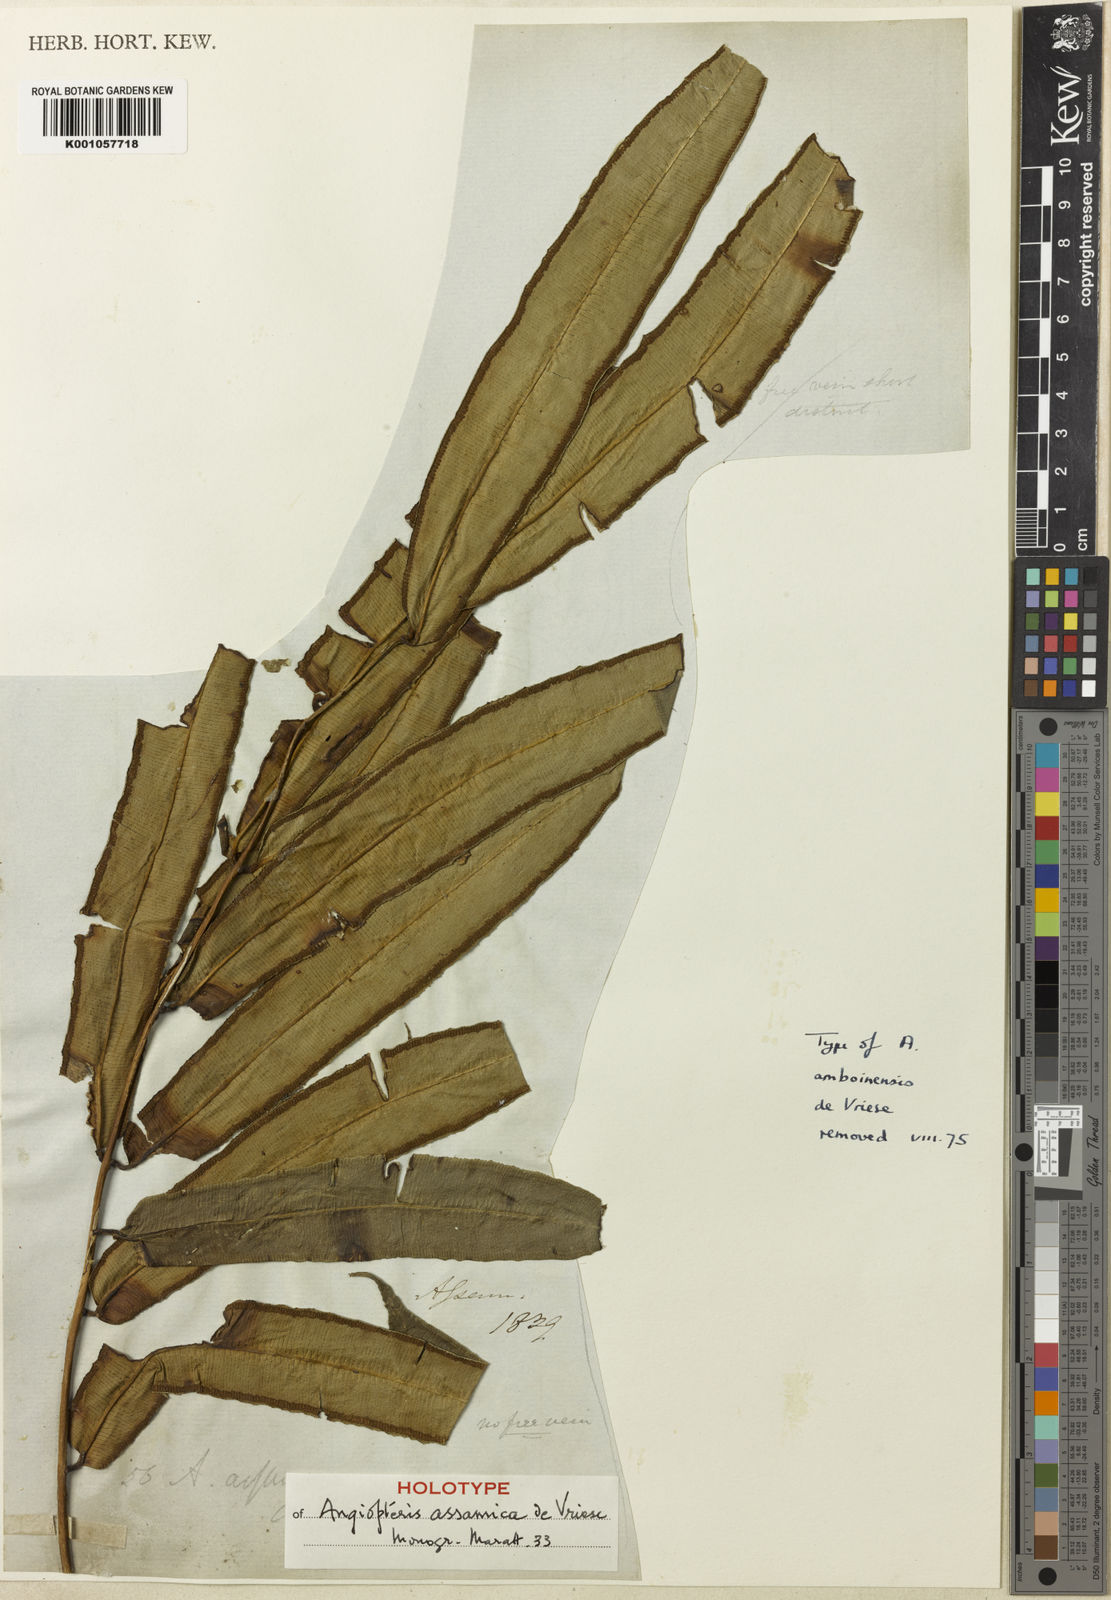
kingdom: Plantae
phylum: Tracheophyta
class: Polypodiopsida
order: Marattiales
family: Marattiaceae
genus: Angiopteris
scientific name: Angiopteris indica
